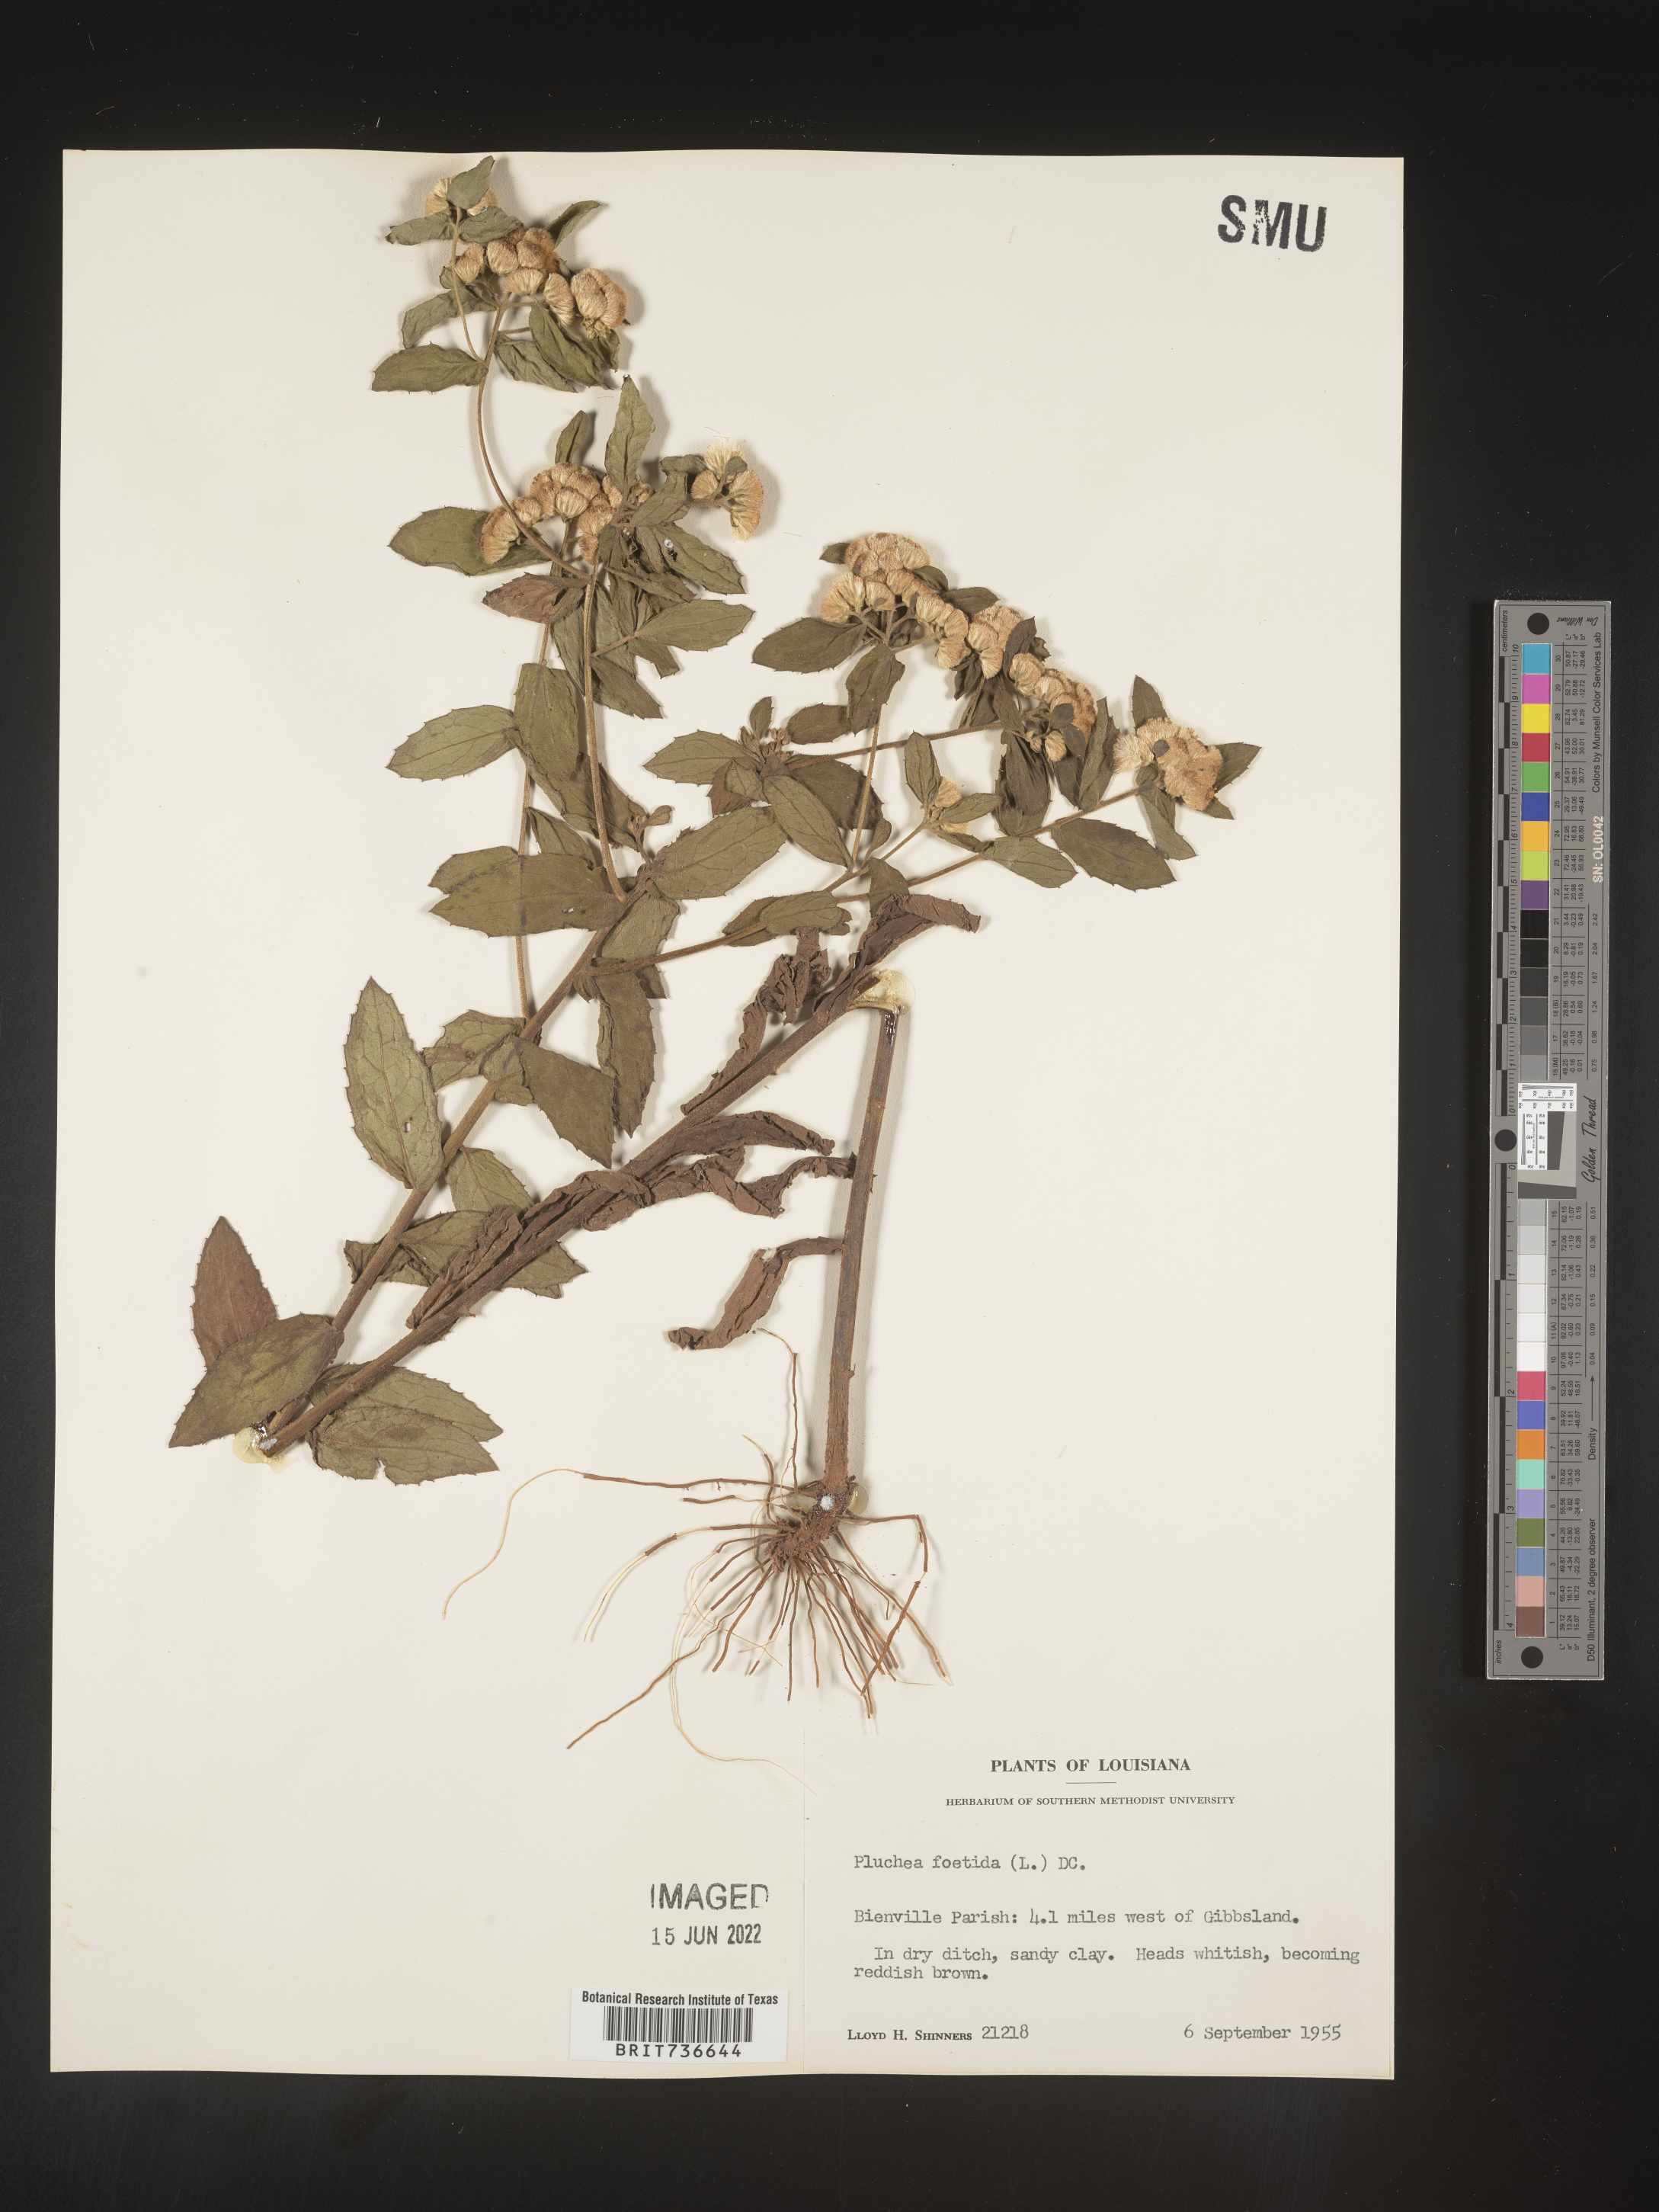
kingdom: Plantae
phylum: Tracheophyta
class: Magnoliopsida
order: Asterales
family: Asteraceae
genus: Pluchea
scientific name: Pluchea foetida
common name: Stinking camphorweed
